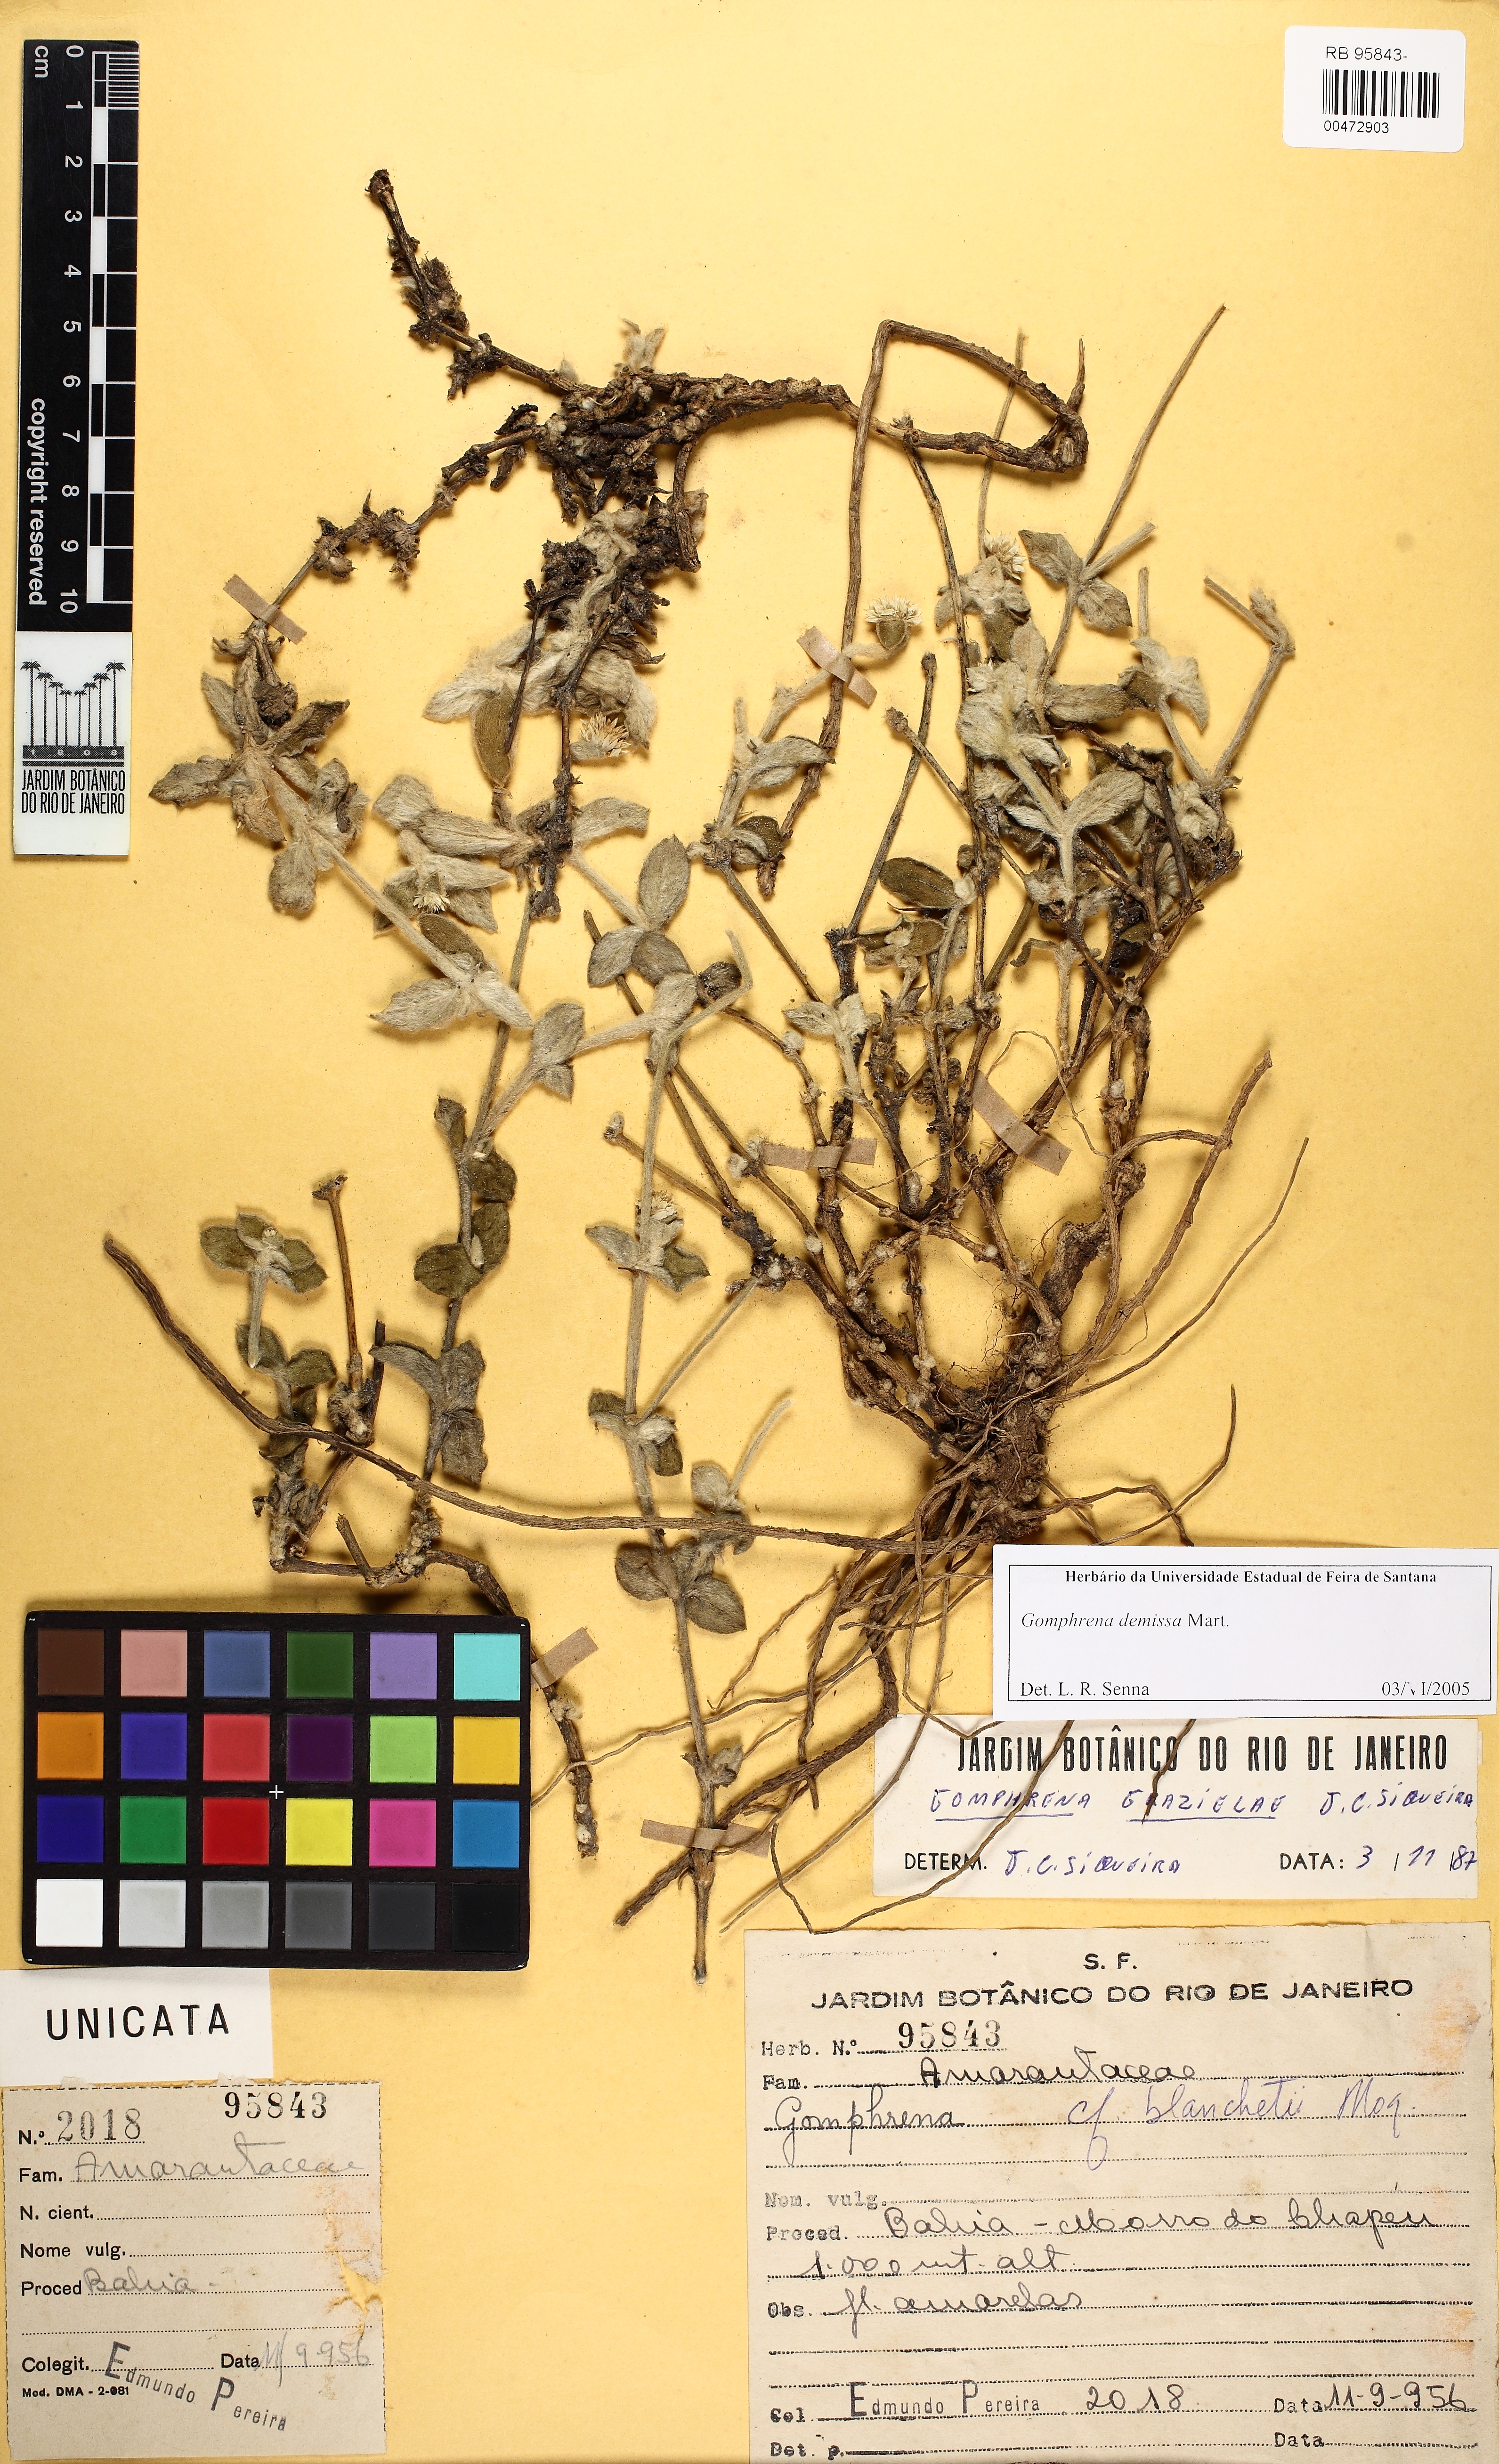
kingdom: Plantae
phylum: Tracheophyta
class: Magnoliopsida
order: Caryophyllales
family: Amaranthaceae
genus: Gomphrena
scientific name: Gomphrena demissa
